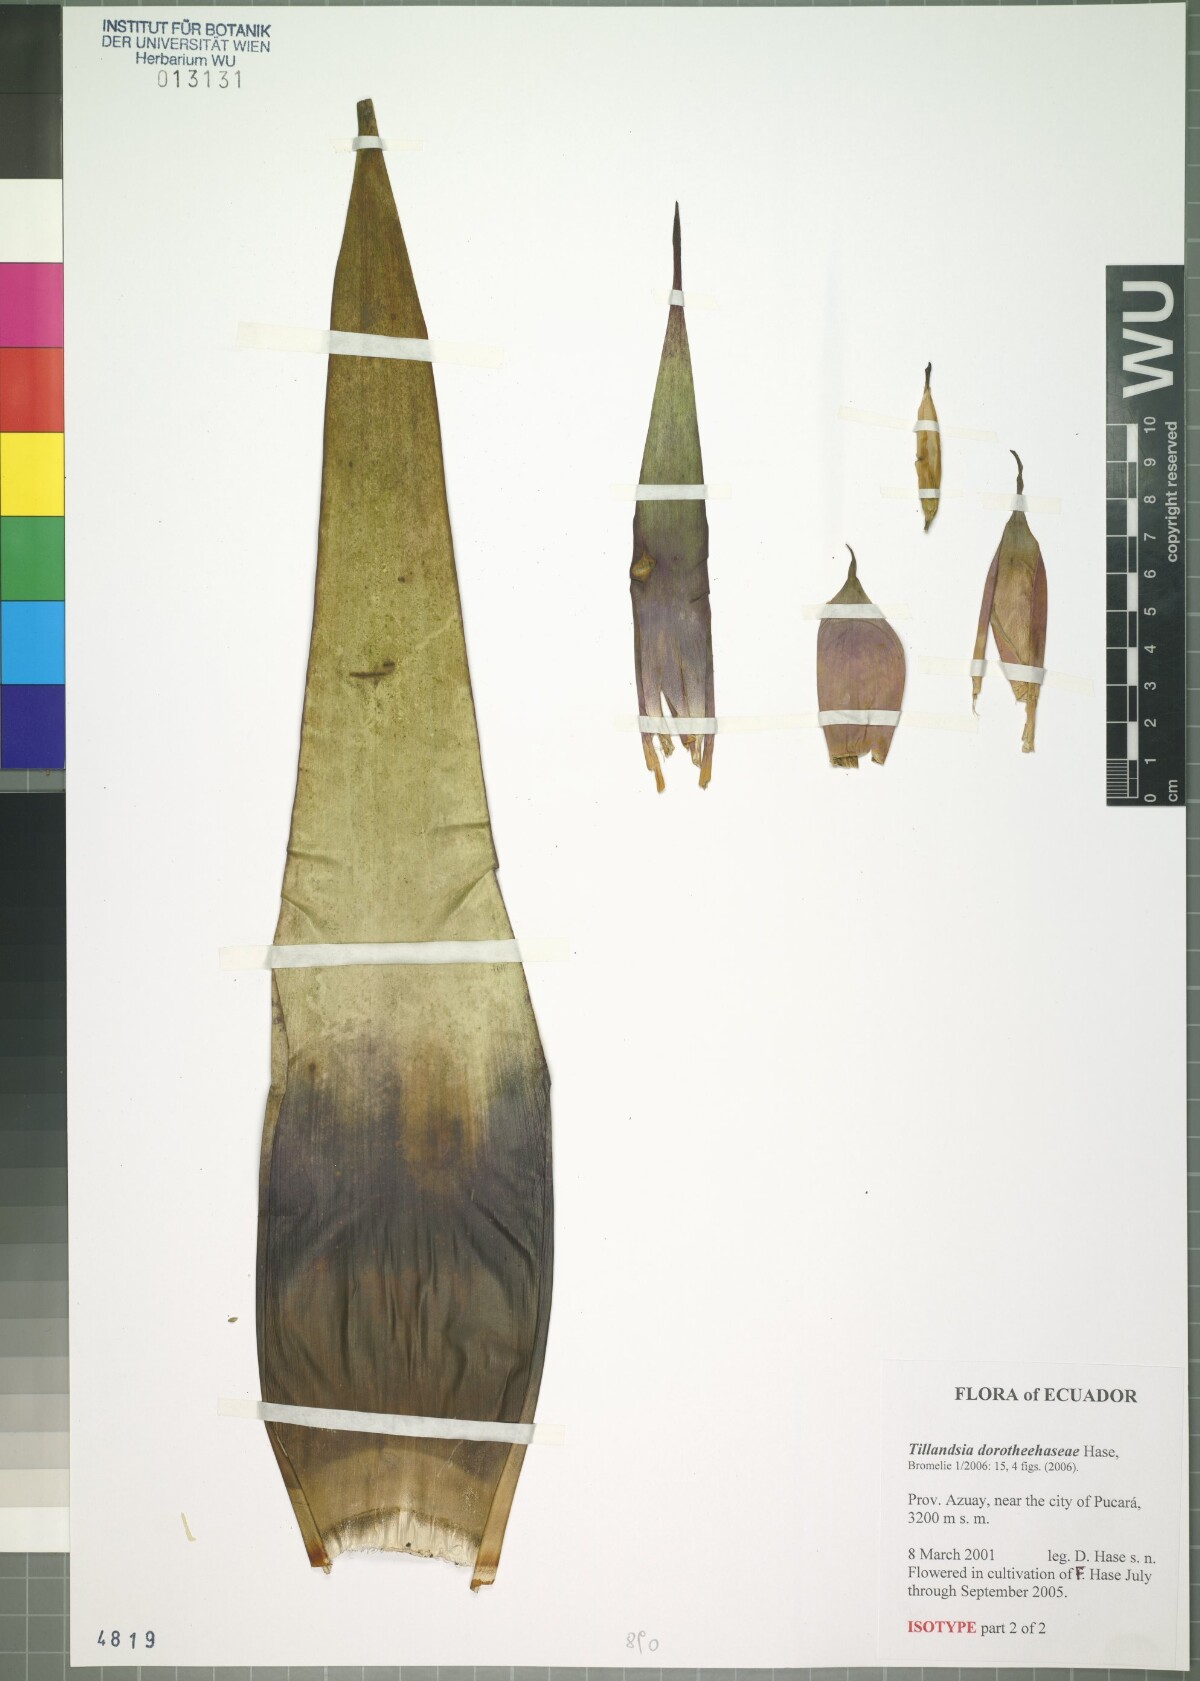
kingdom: Plantae
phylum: Tracheophyta
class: Liliopsida
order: Poales
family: Bromeliaceae
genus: Tillandsia
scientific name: Tillandsia dorotheehaseae
